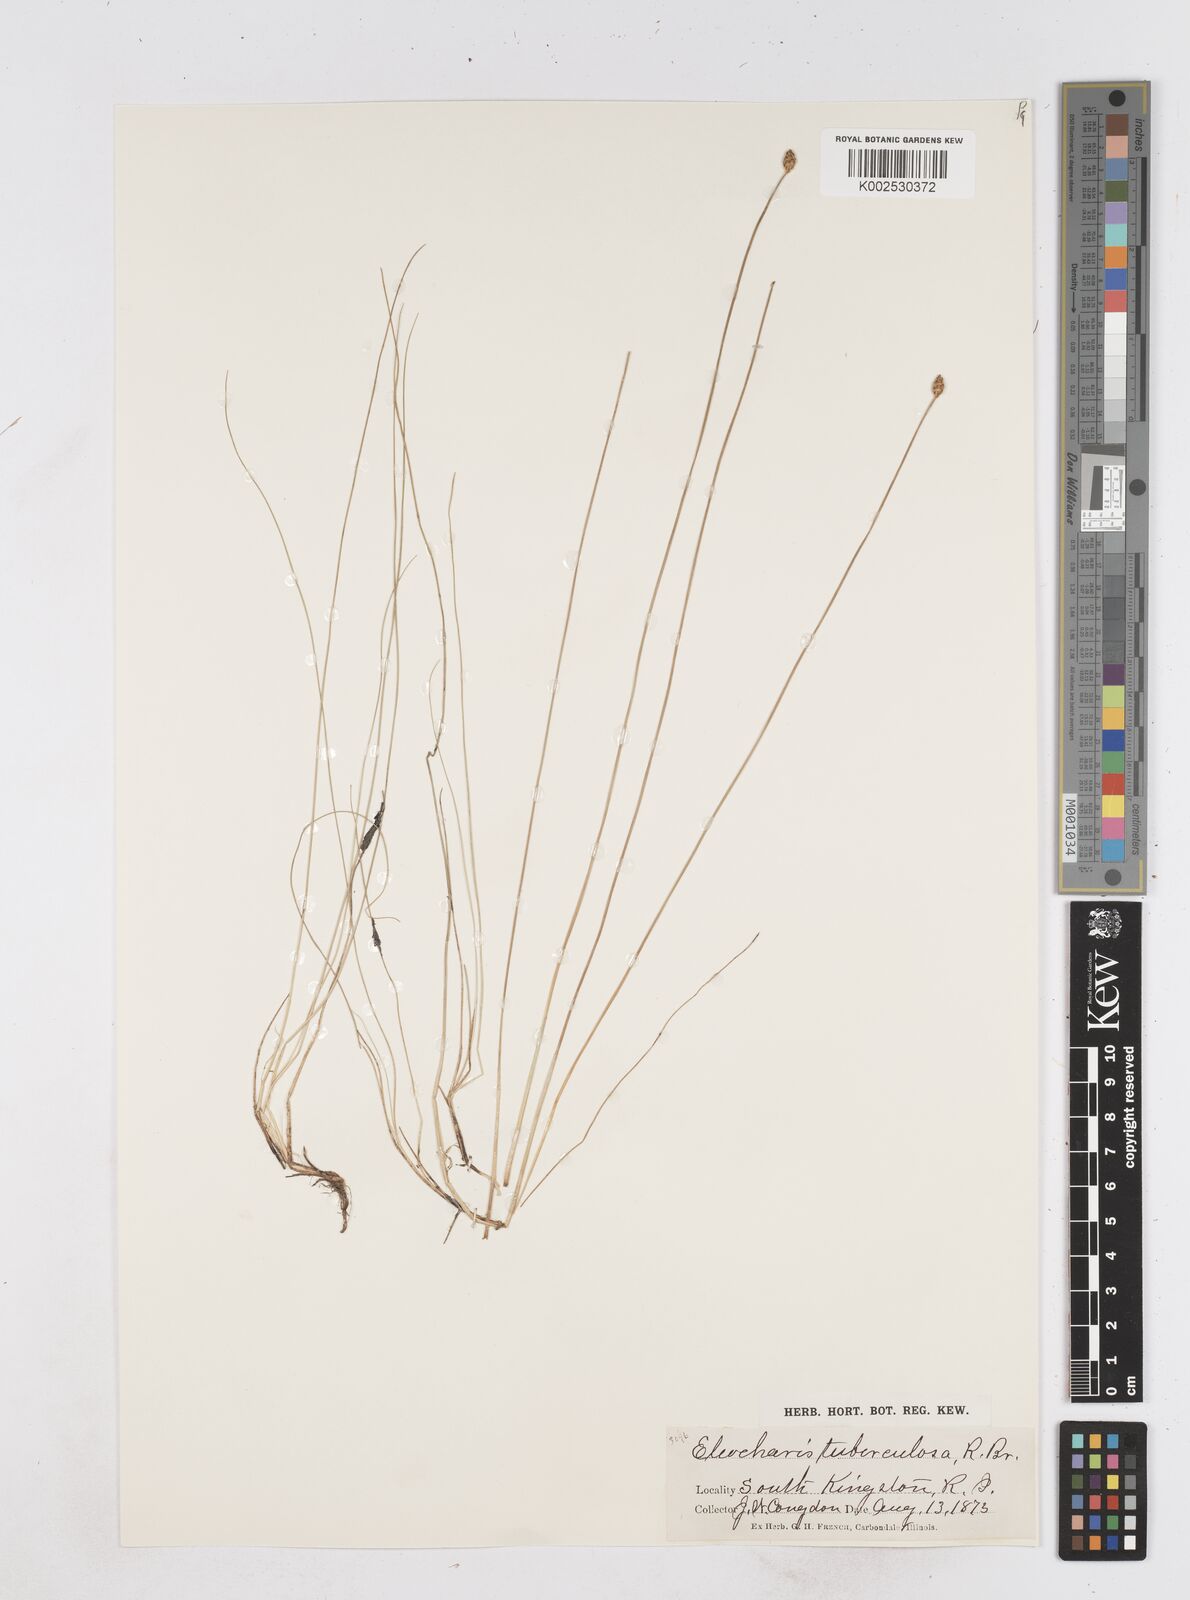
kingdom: Plantae
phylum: Tracheophyta
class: Liliopsida
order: Poales
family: Cyperaceae
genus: Eleocharis
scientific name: Eleocharis tuberculosa
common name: Cone-cup spikerush
